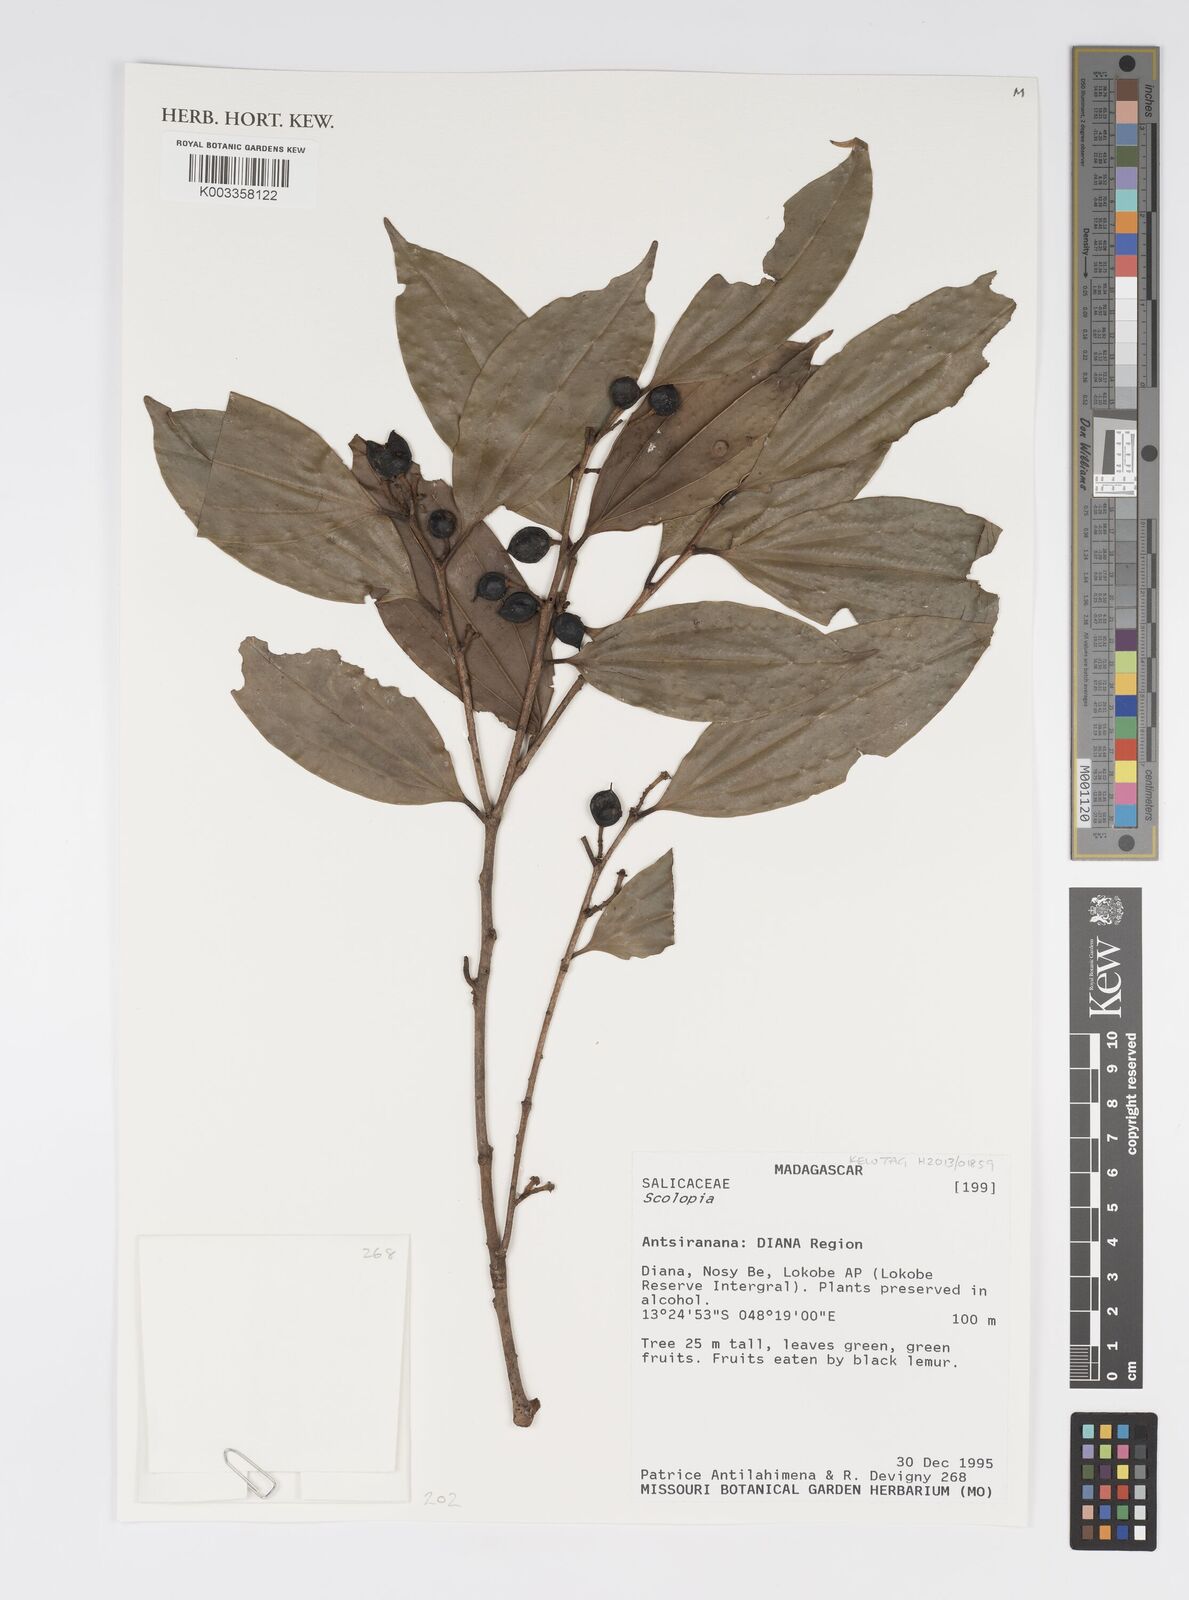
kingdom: Plantae
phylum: Tracheophyta
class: Magnoliopsida
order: Malpighiales
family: Salicaceae
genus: Scolopia
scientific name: Scolopia
